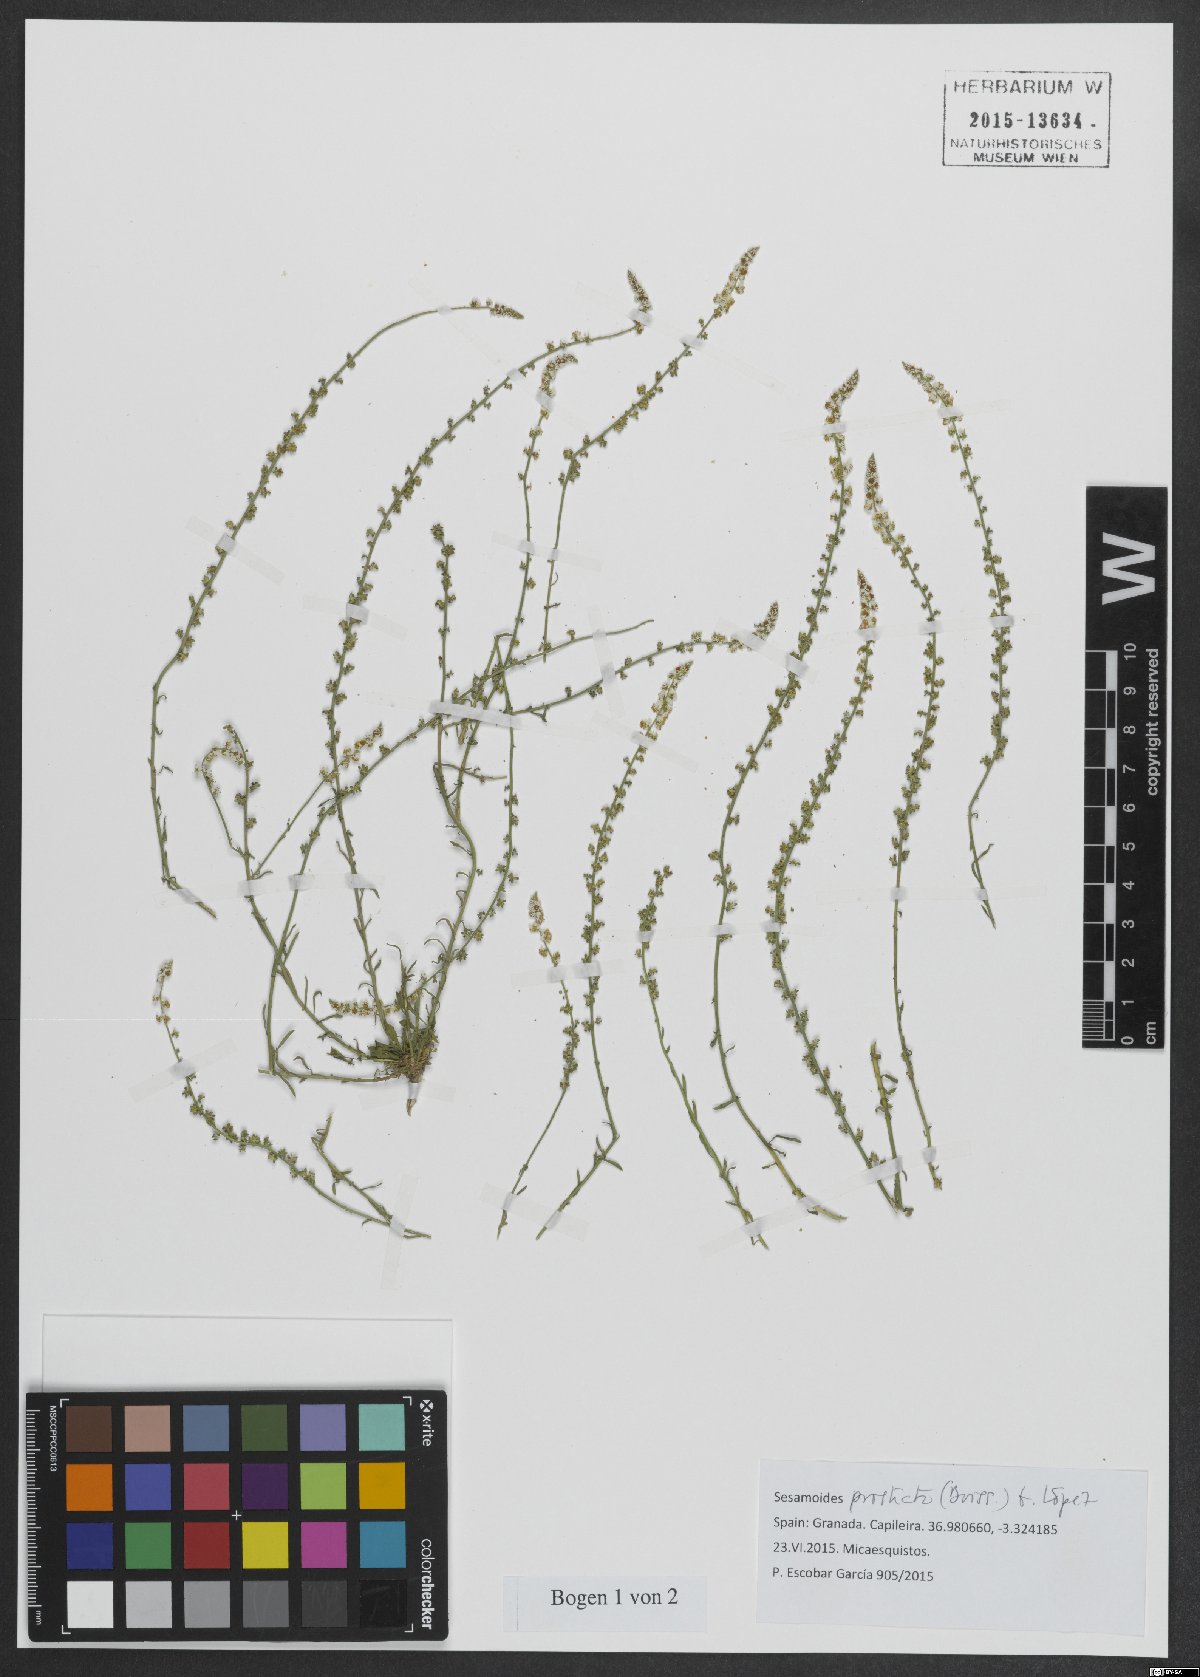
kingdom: Plantae
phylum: Tracheophyta
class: Magnoliopsida
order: Brassicales
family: Resedaceae
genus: Sesamoides
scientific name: Sesamoides prostrata
